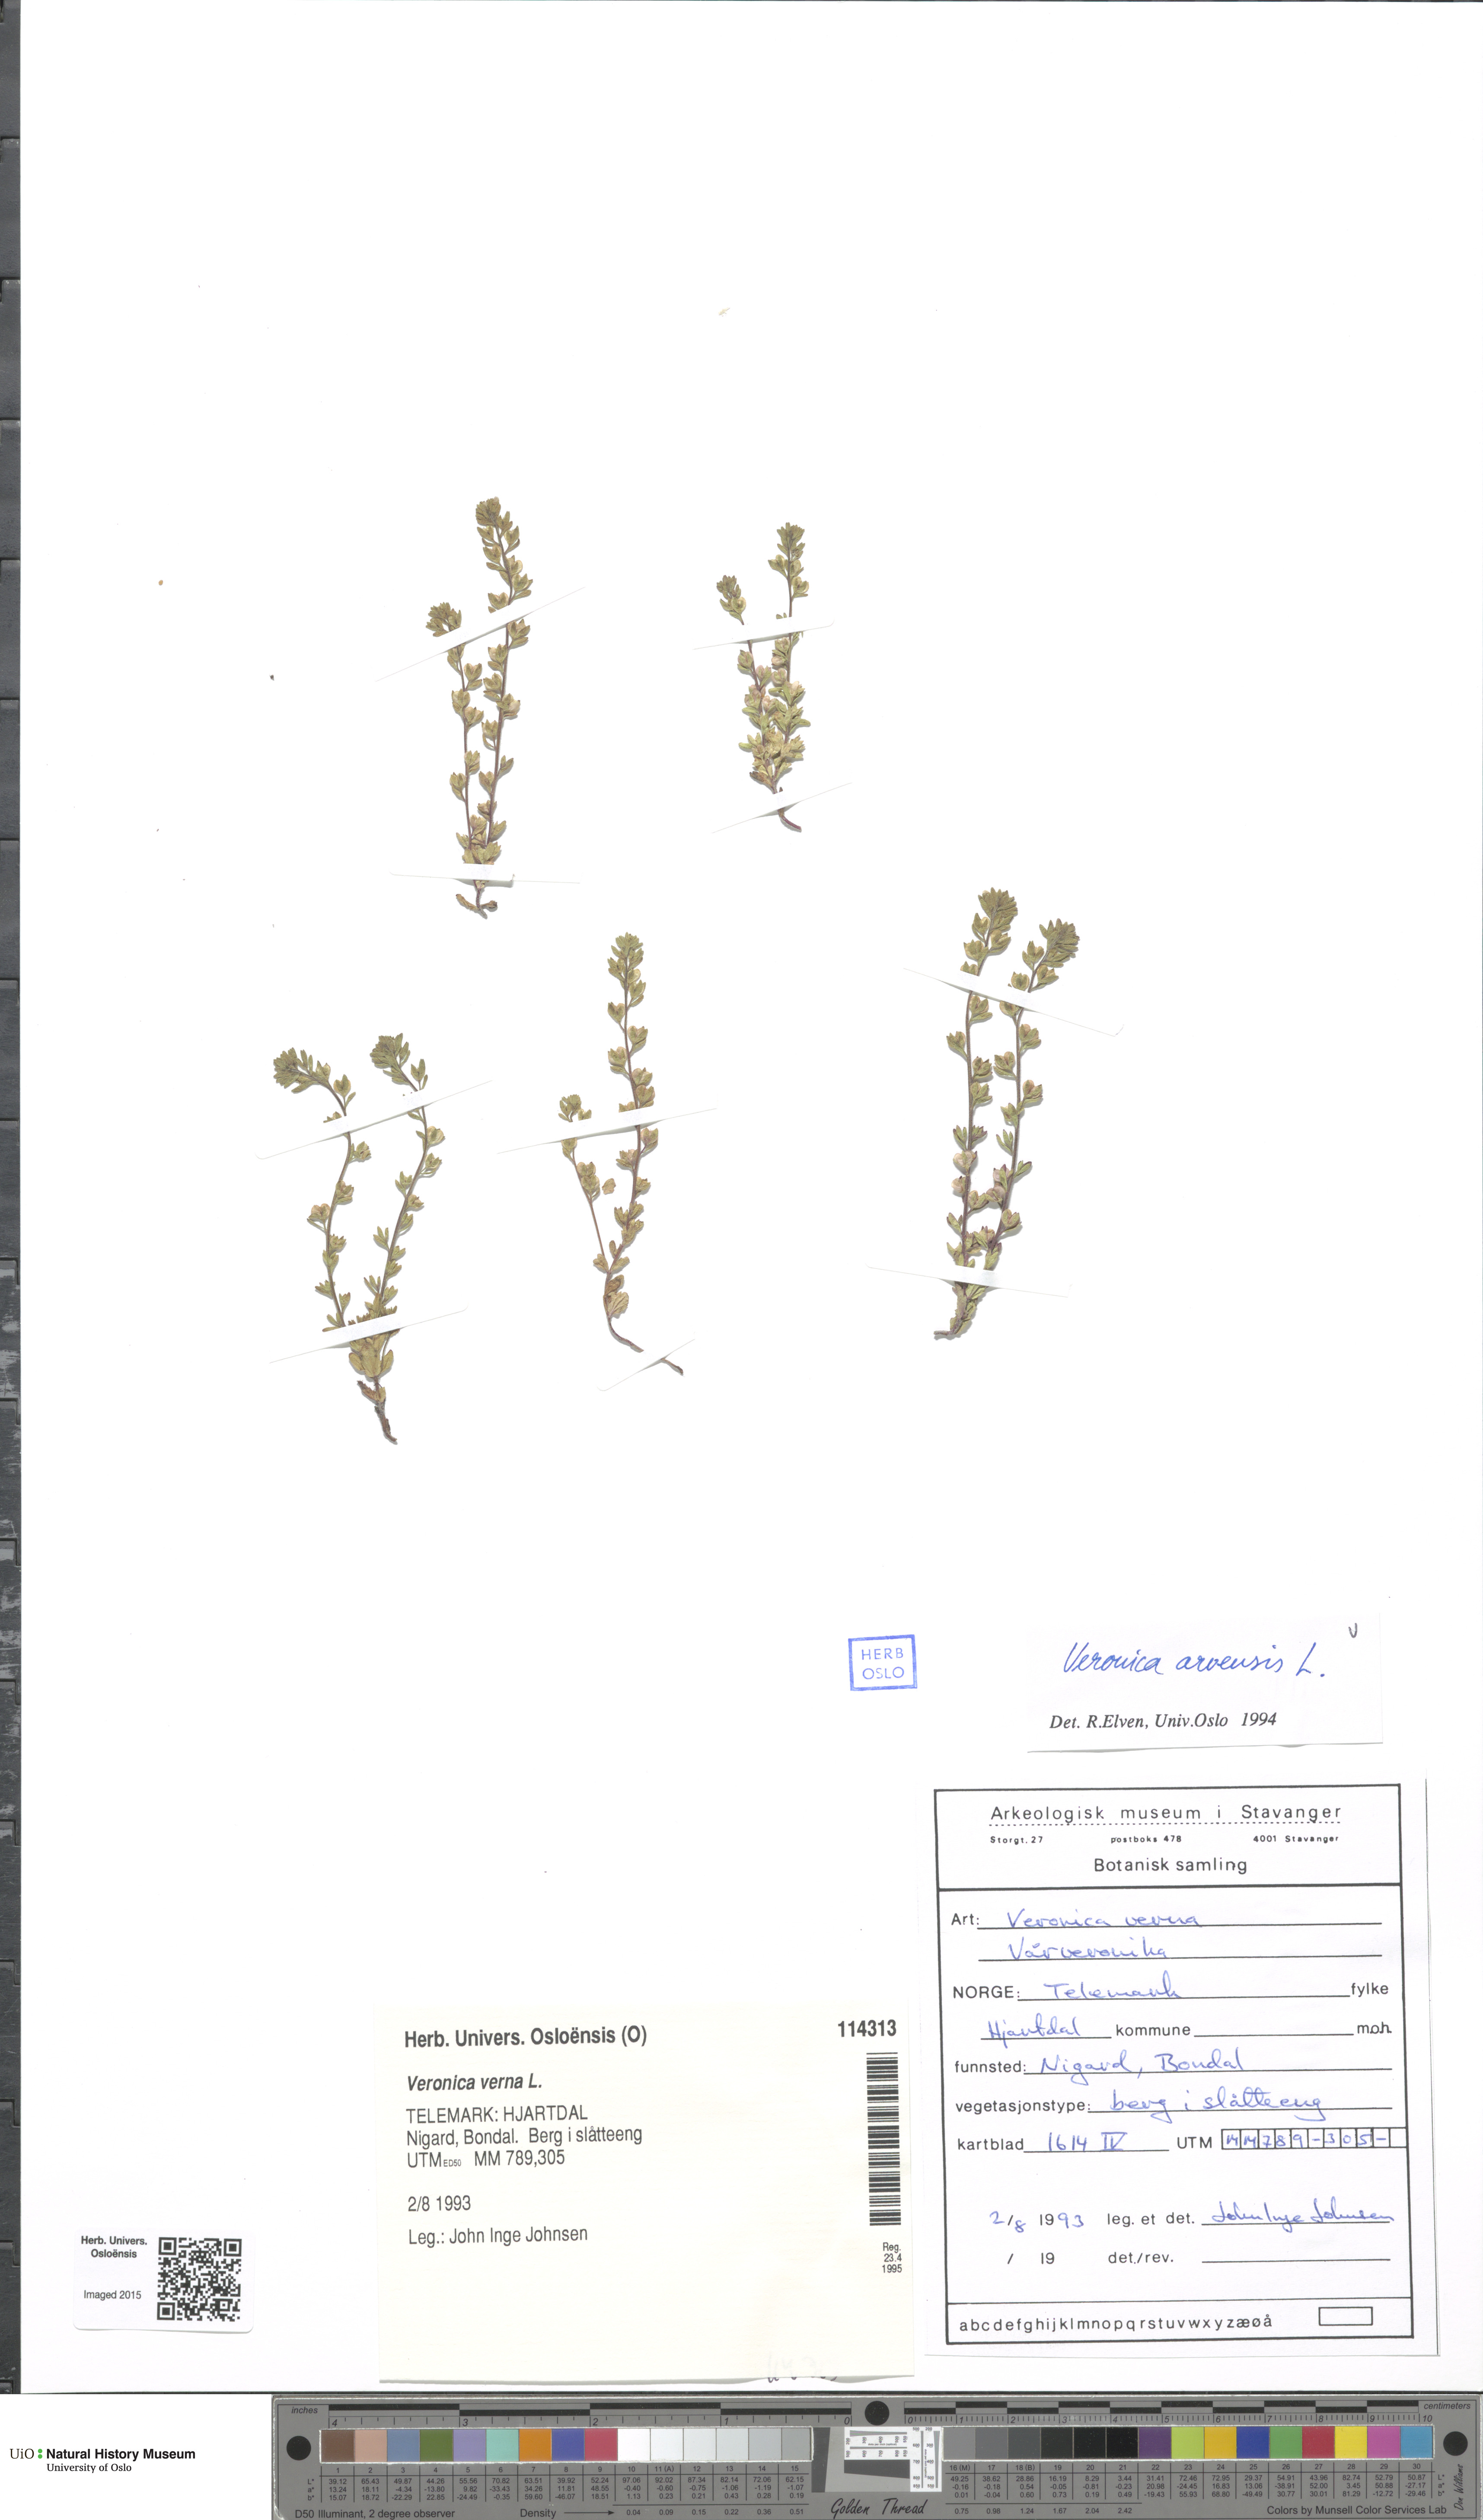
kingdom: Plantae
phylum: Tracheophyta
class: Magnoliopsida
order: Lamiales
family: Plantaginaceae
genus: Veronica
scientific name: Veronica arvensis
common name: Corn speedwell
